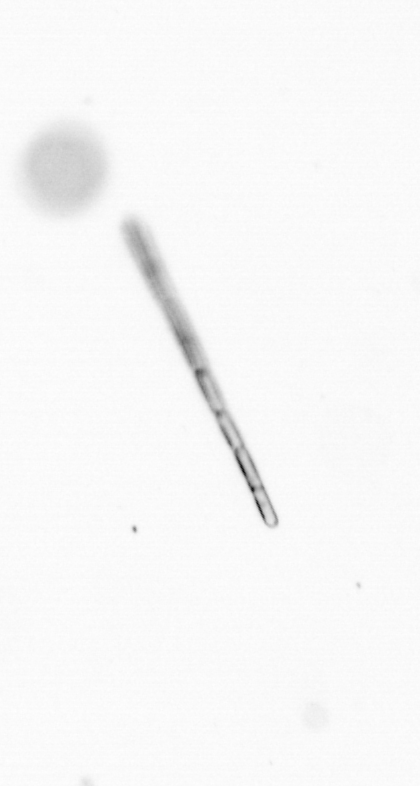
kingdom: Chromista
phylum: Ochrophyta
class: Bacillariophyceae
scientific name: Bacillariophyceae
